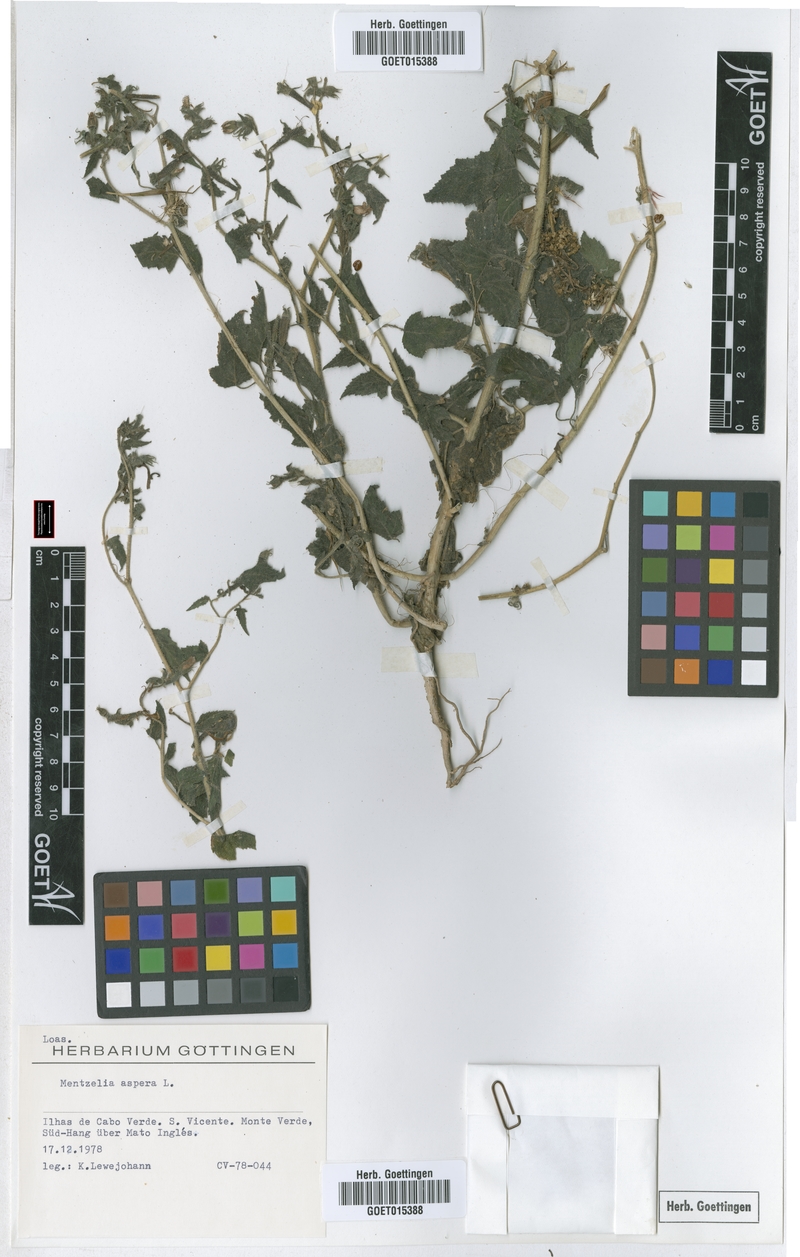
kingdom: Plantae
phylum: Tracheophyta
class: Magnoliopsida
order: Cornales
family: Loasaceae
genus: Mentzelia
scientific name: Mentzelia aspera
